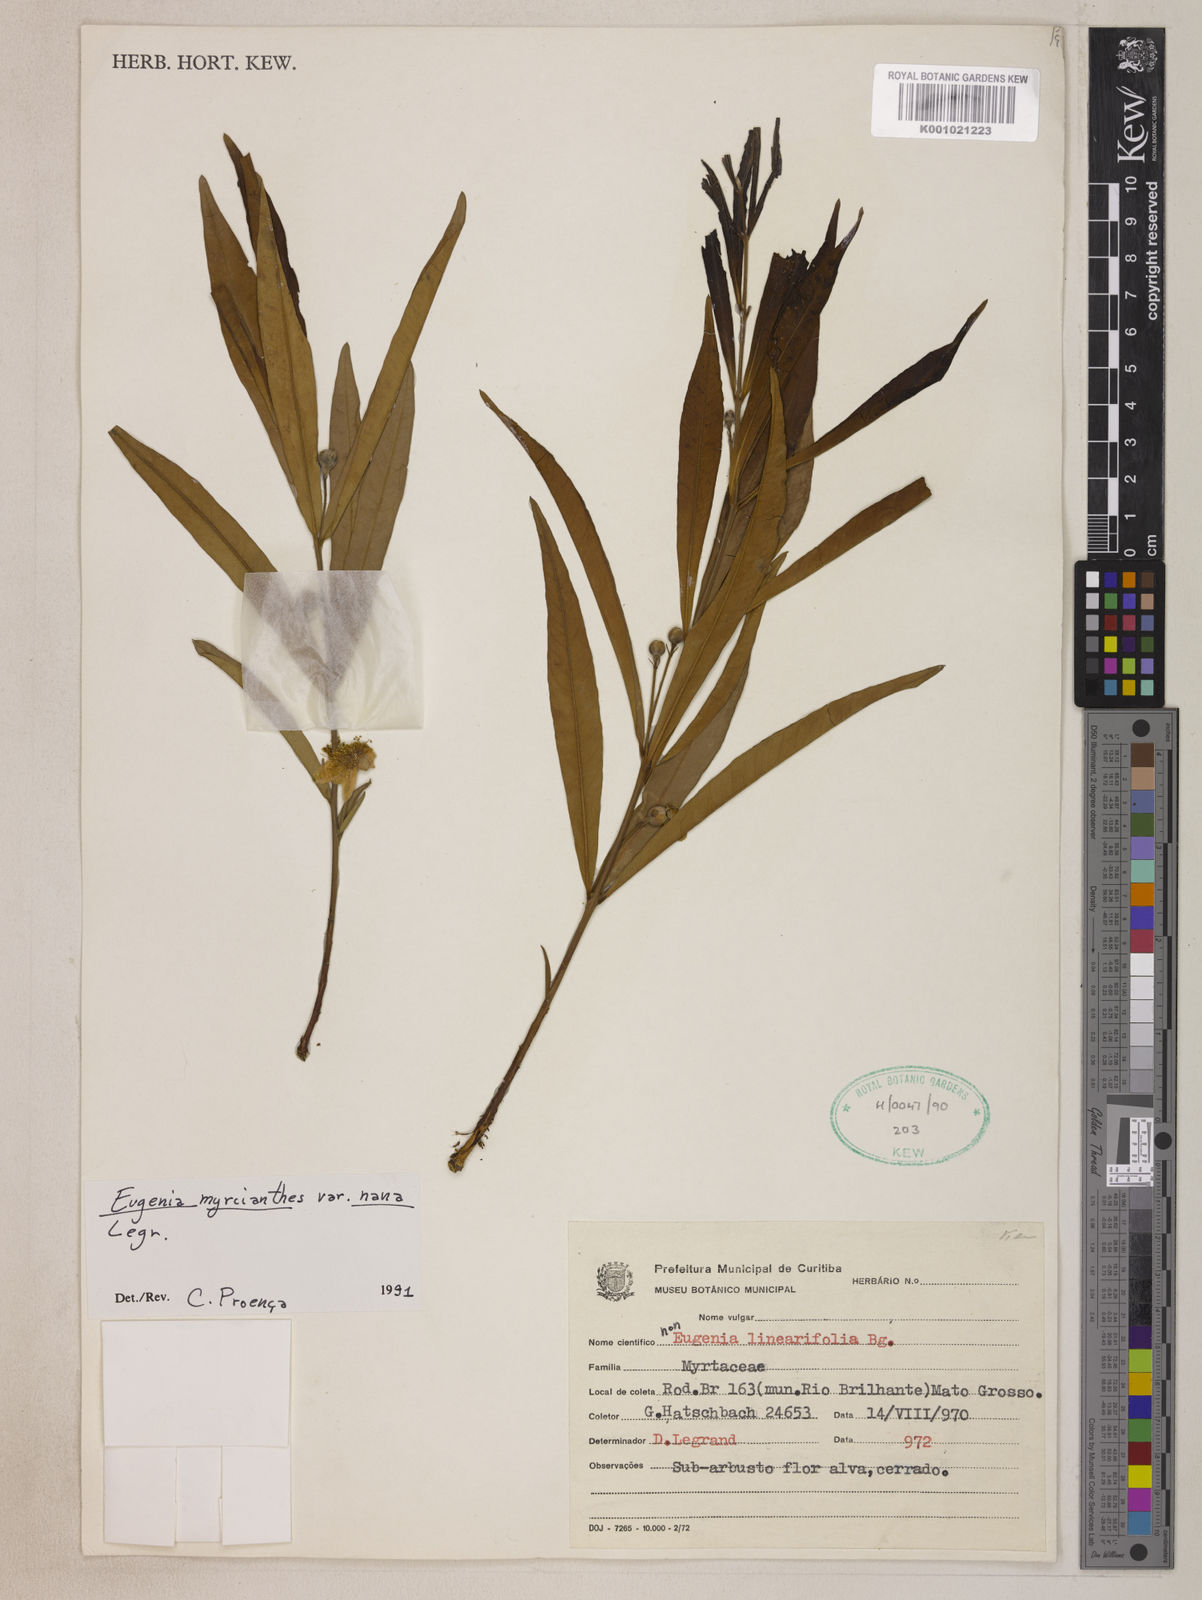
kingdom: Plantae
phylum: Tracheophyta
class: Magnoliopsida
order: Myrtales
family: Myrtaceae
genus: Eugenia
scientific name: Eugenia anomala
